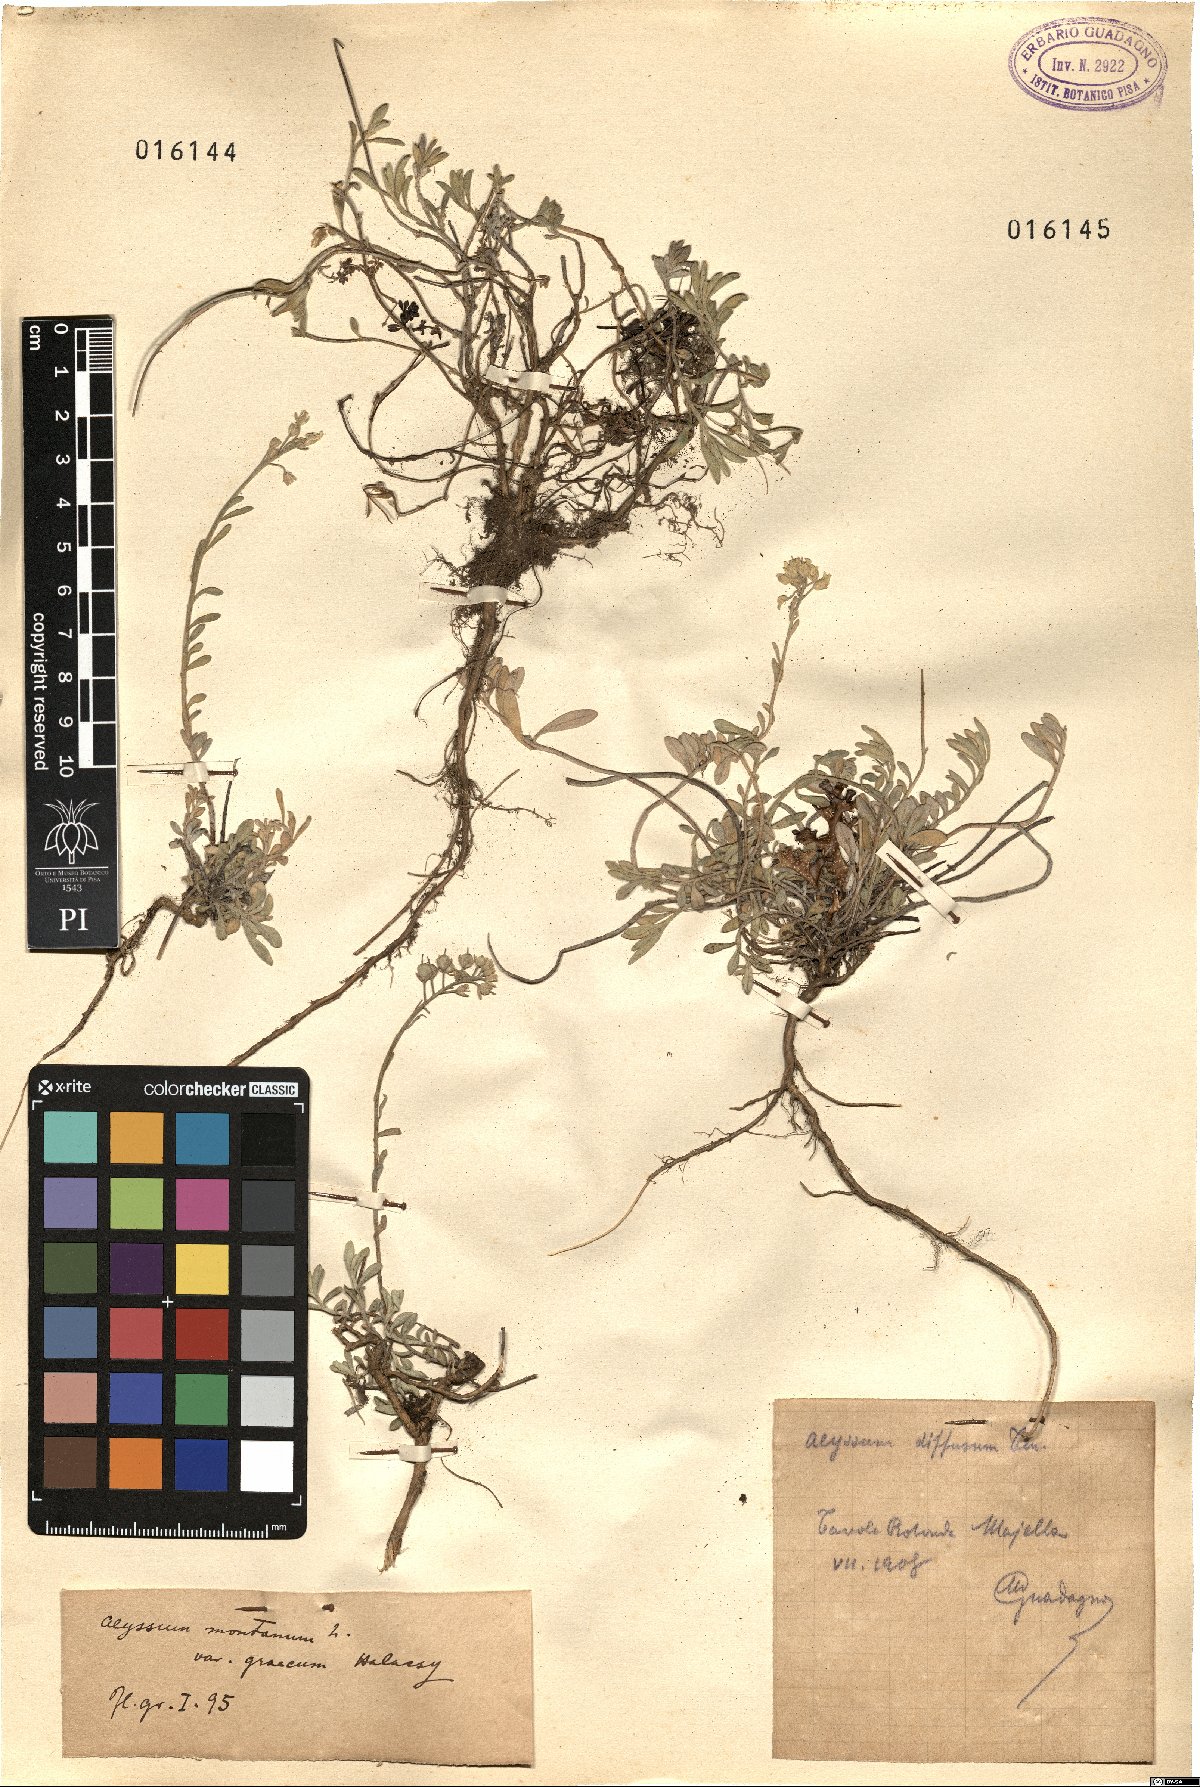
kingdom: Plantae
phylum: Tracheophyta
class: Magnoliopsida
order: Brassicales
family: Brassicaceae
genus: Alyssum
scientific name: Alyssum montanum
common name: Mountain alison
